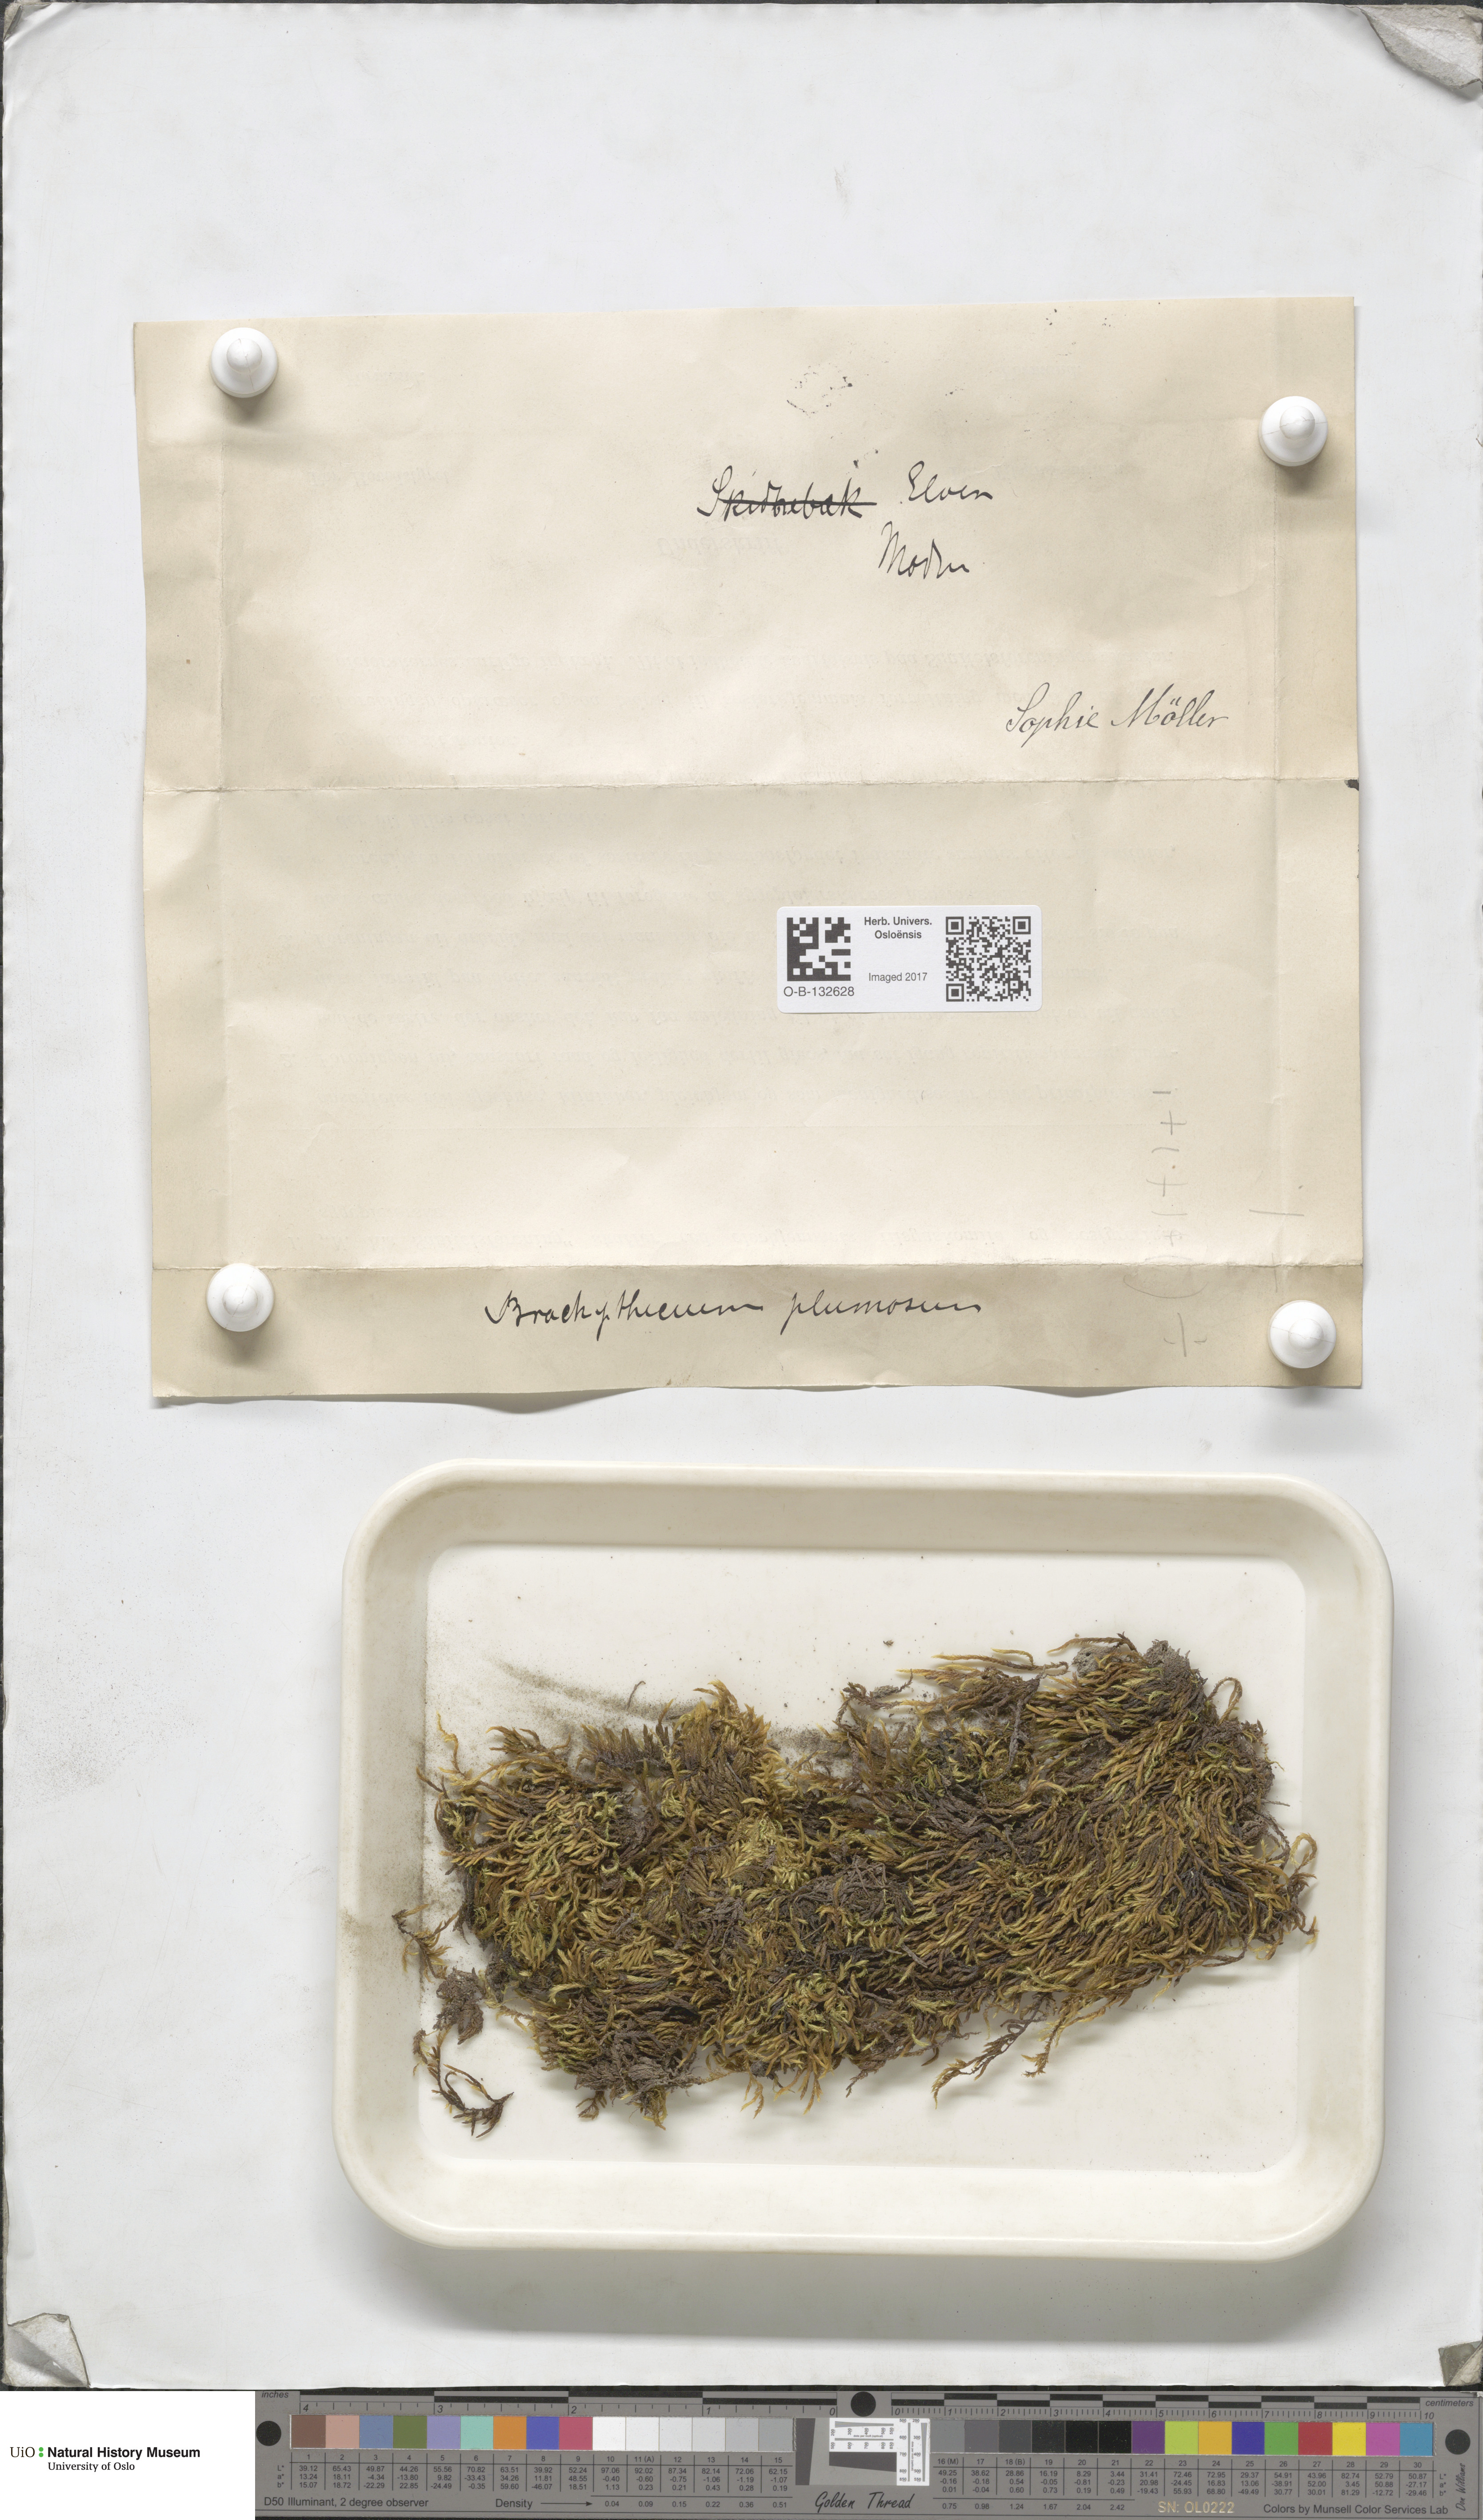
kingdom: Plantae
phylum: Bryophyta
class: Bryopsida
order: Hypnales
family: Brachytheciaceae
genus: Sciuro-hypnum
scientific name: Sciuro-hypnum plumosum
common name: Rusty feather-moss
